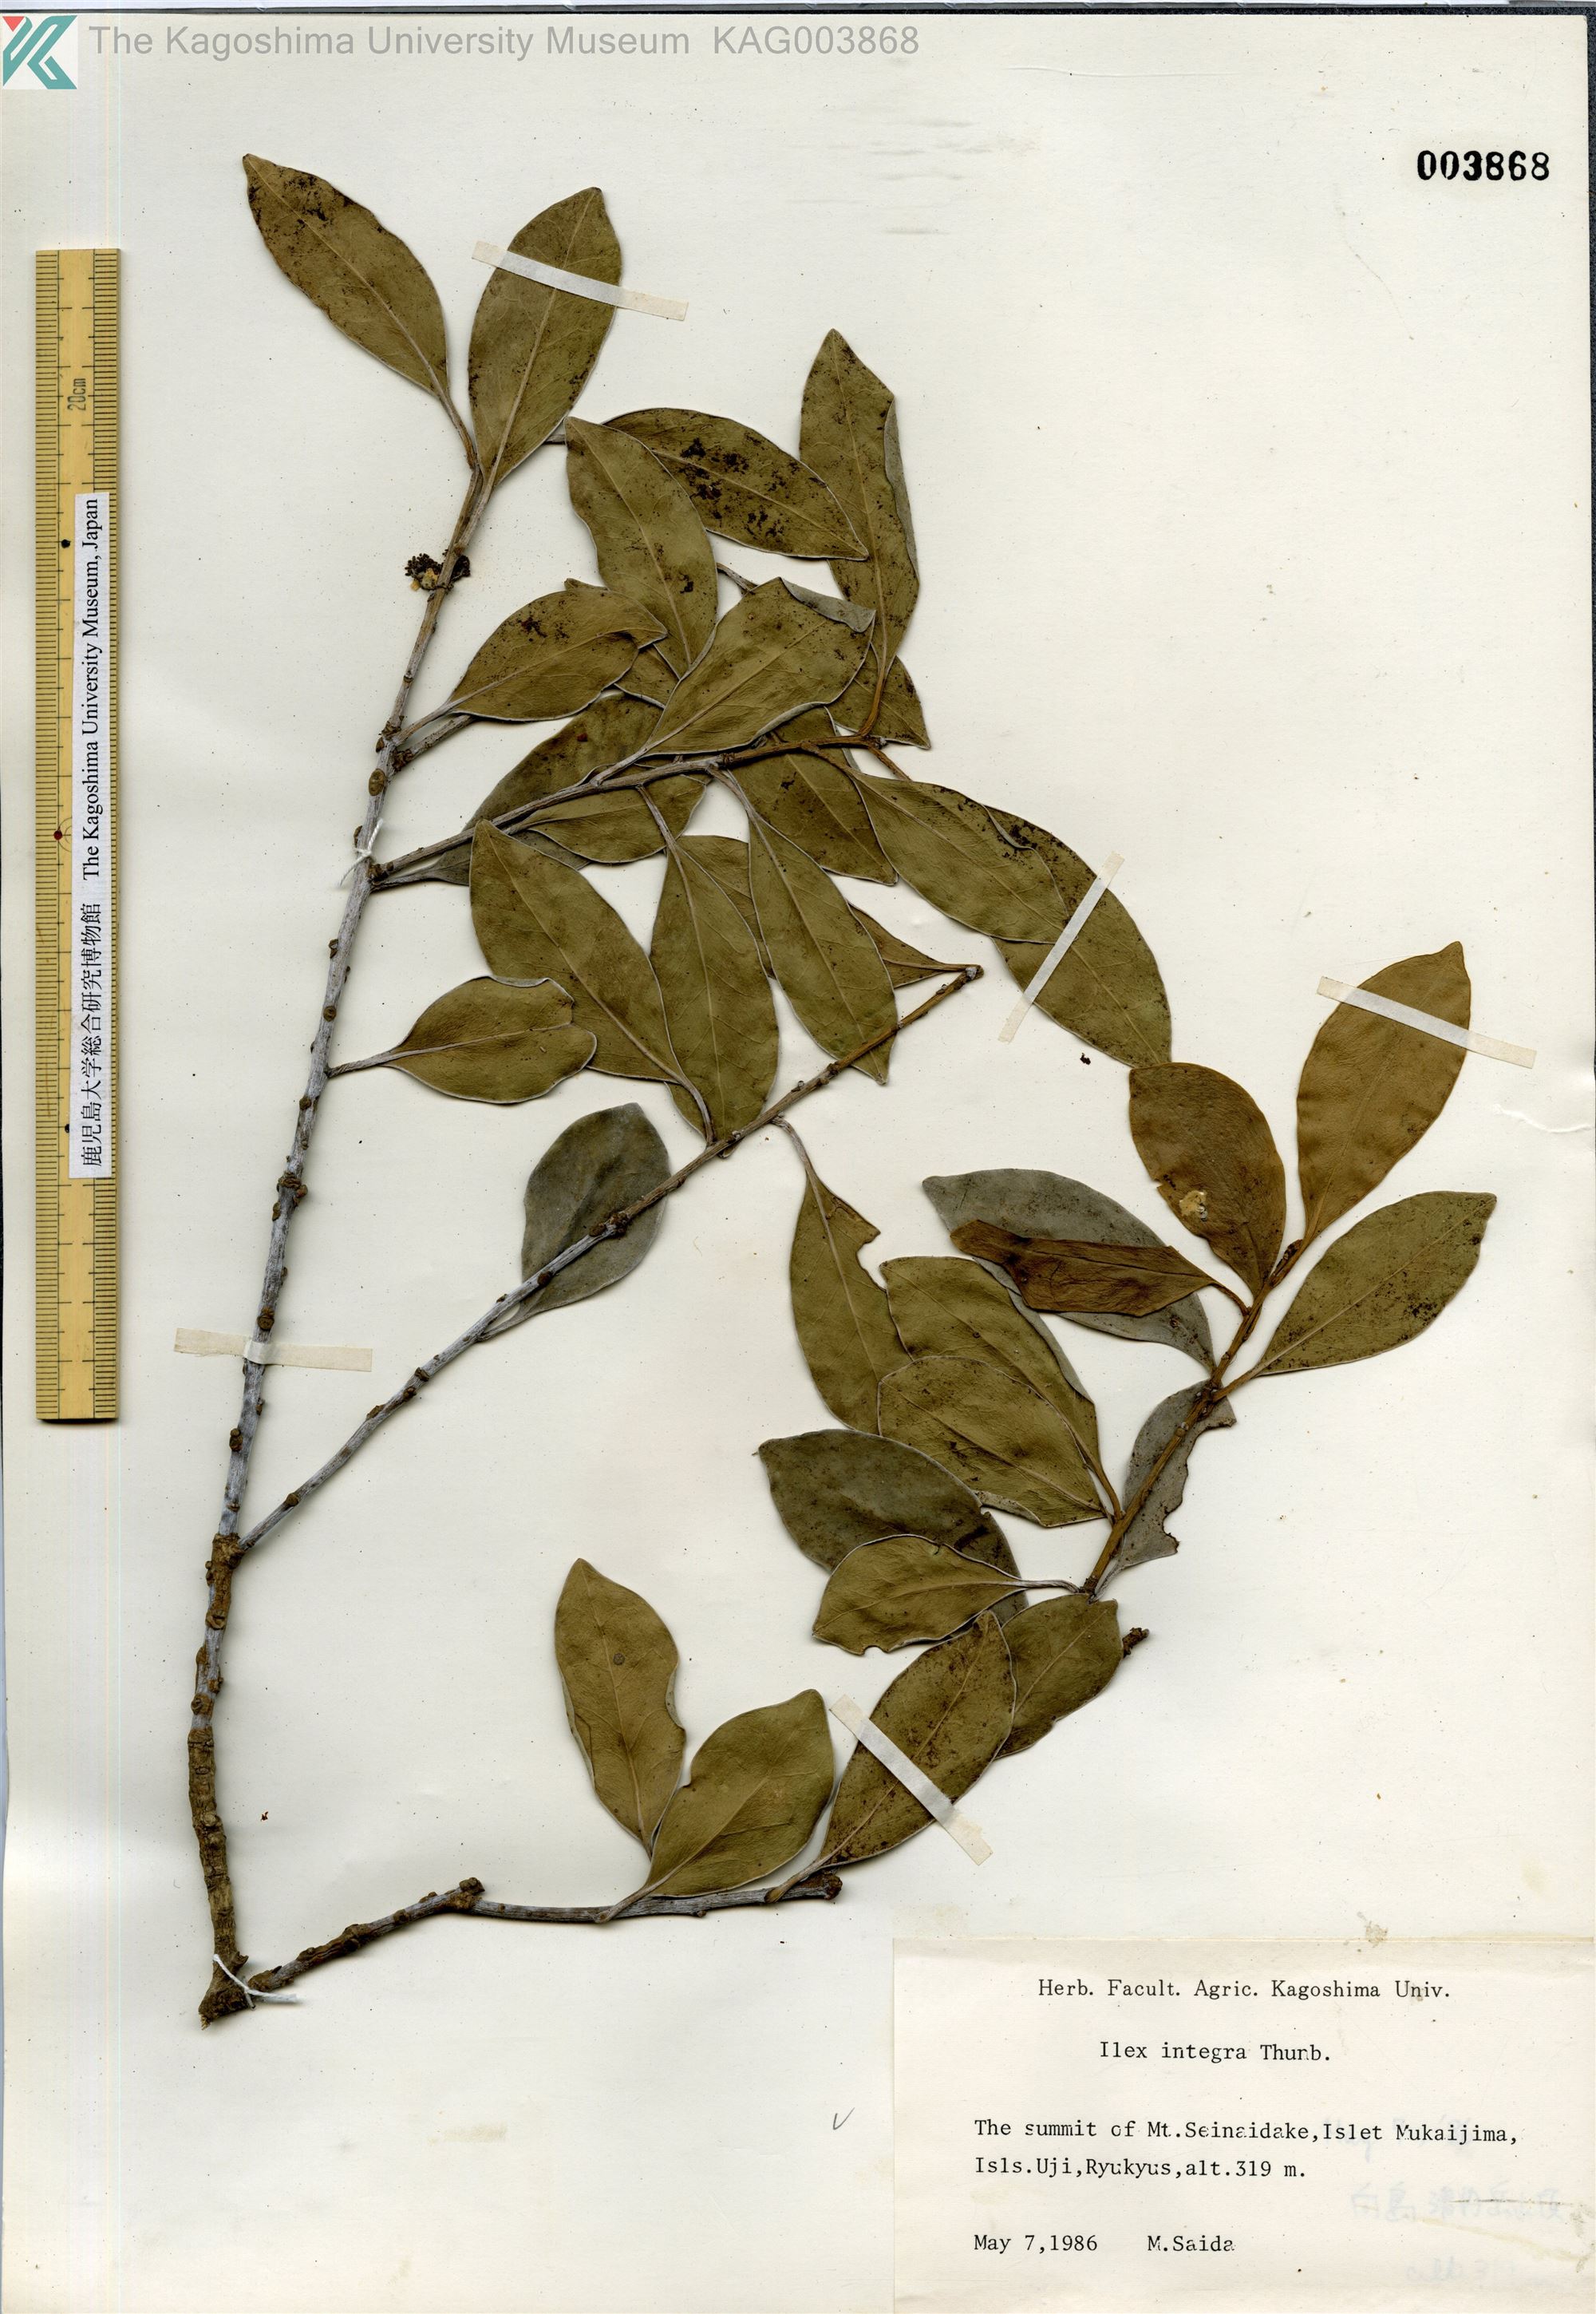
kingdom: Plantae
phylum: Tracheophyta
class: Magnoliopsida
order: Aquifoliales
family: Aquifoliaceae
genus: Ilex
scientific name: Ilex integra
